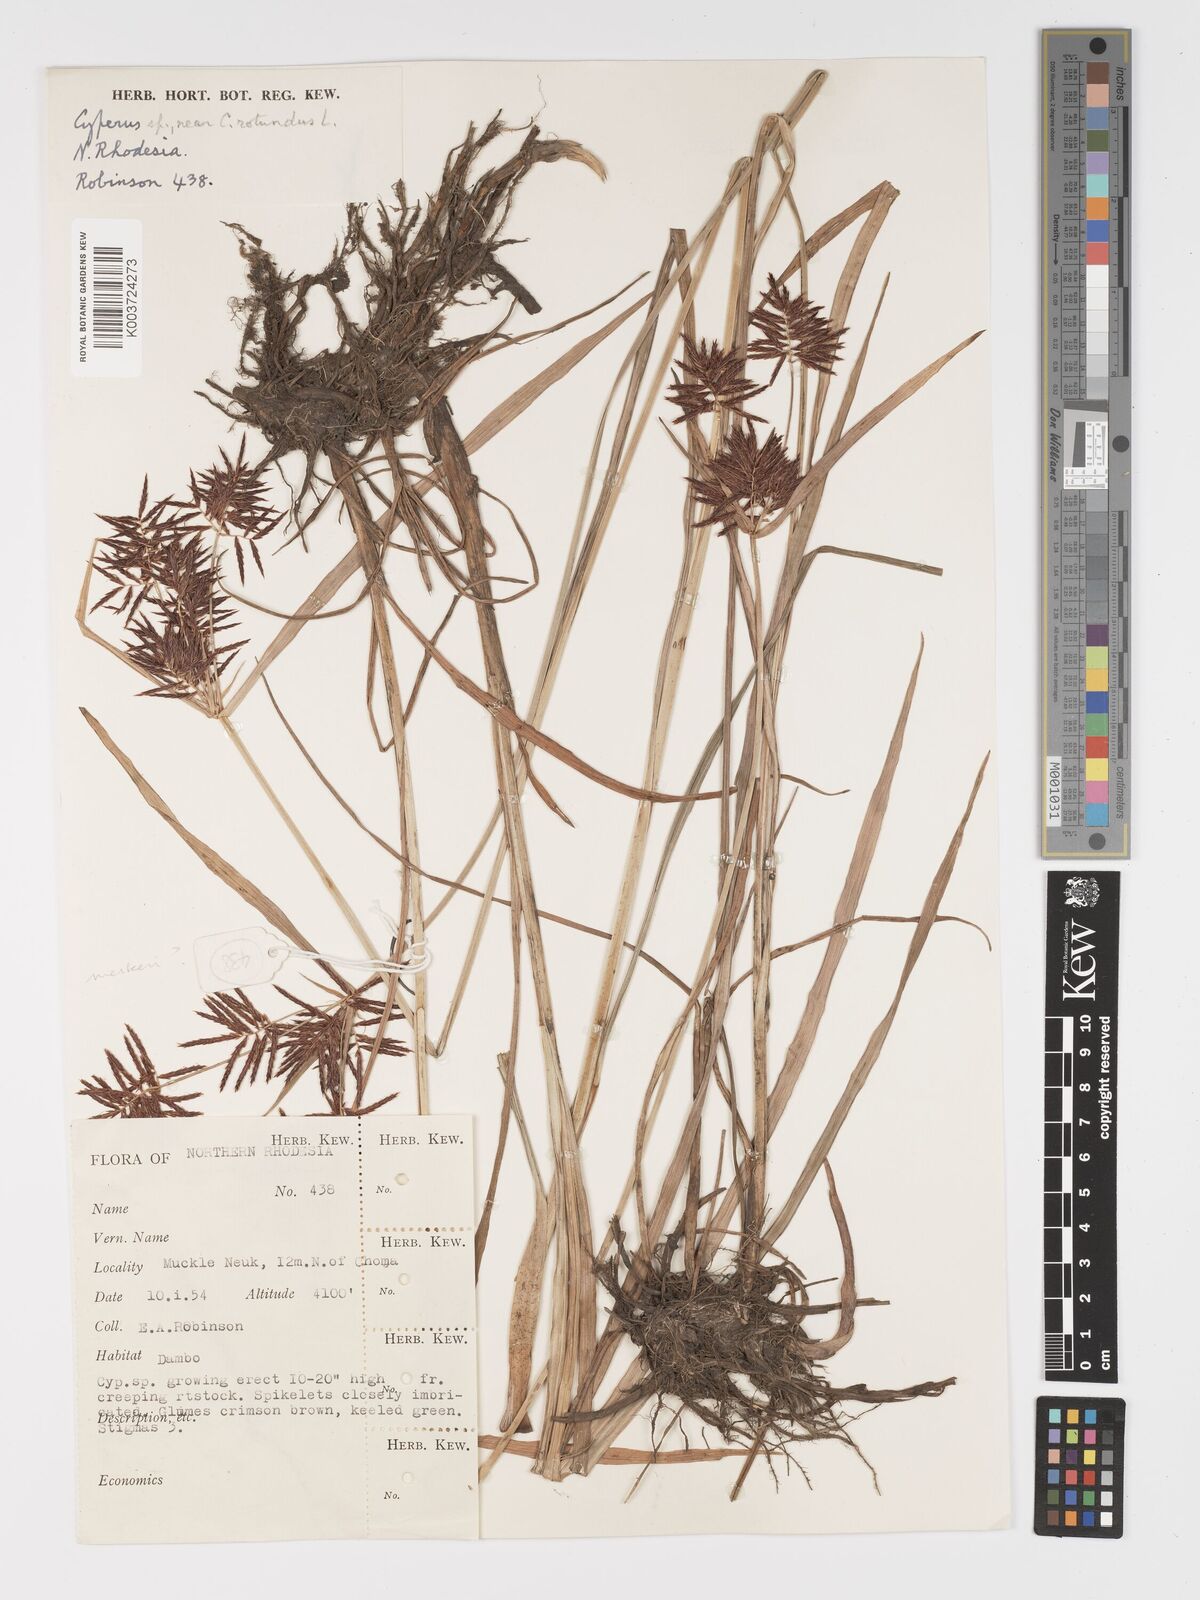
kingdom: Plantae
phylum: Tracheophyta
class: Liliopsida
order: Poales
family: Cyperaceae
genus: Cyperus
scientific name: Cyperus
